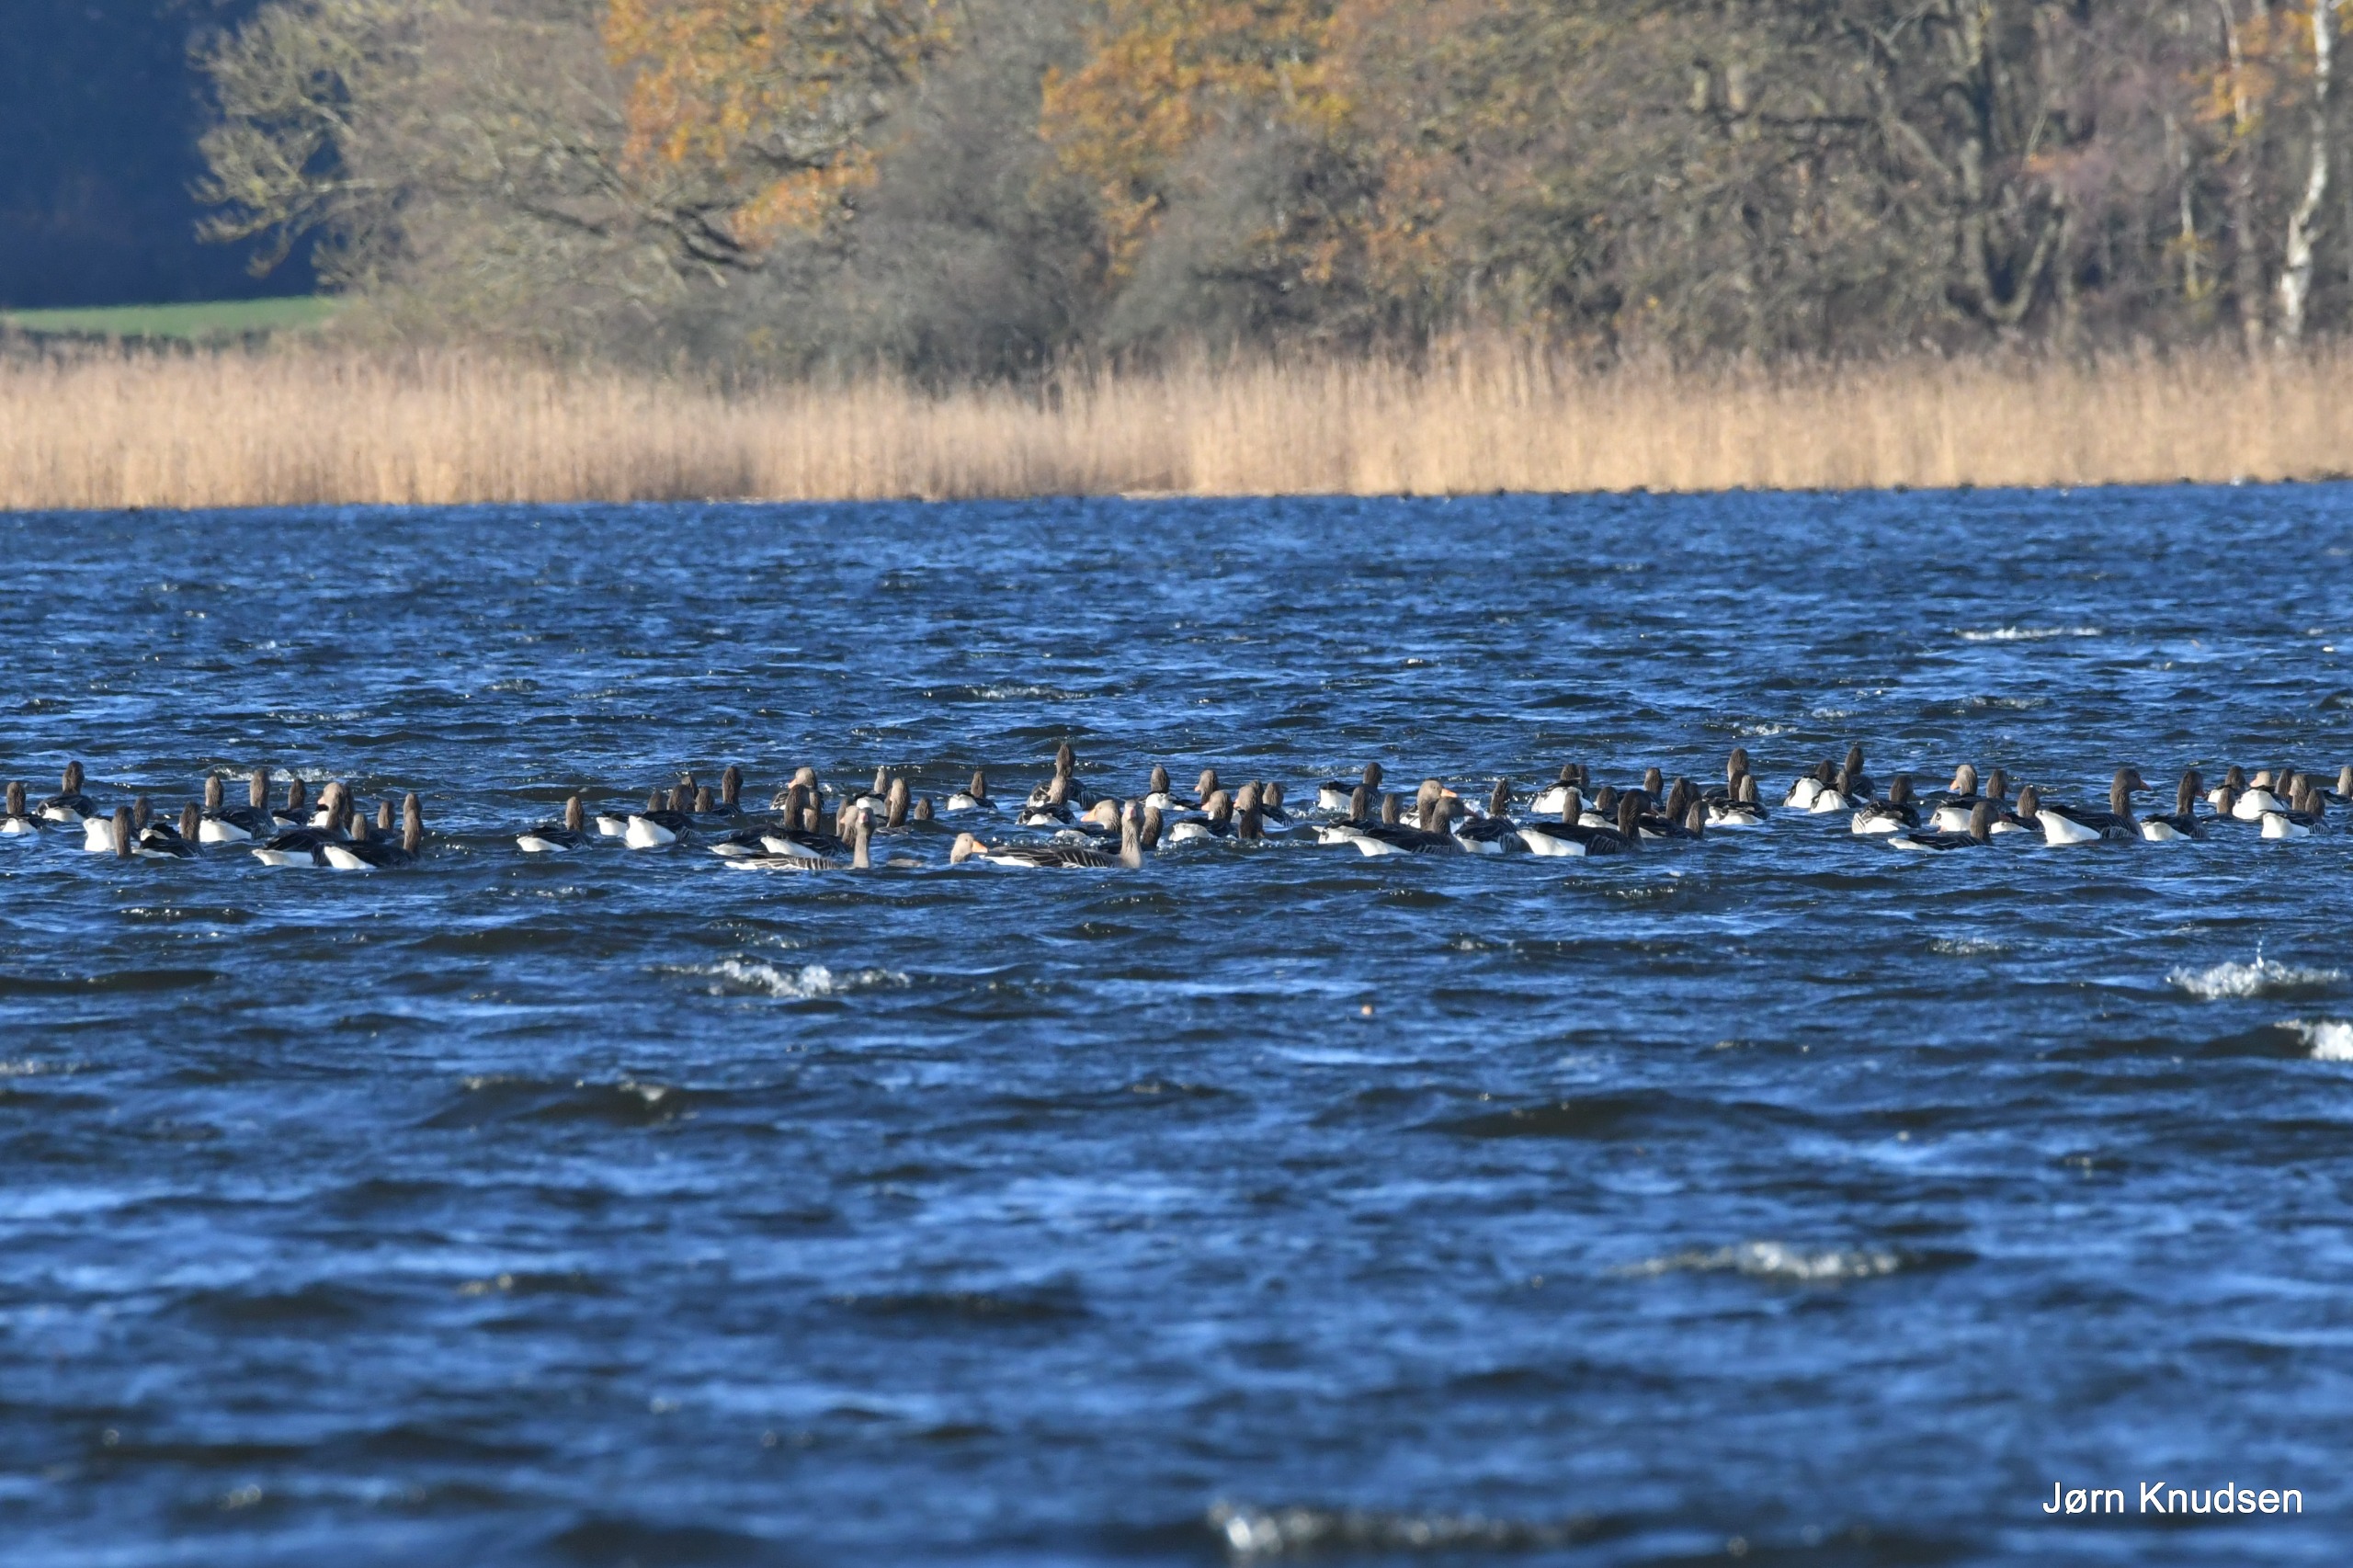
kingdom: Animalia
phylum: Chordata
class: Aves
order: Anseriformes
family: Anatidae
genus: Anser
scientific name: Anser anser
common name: Grågås
